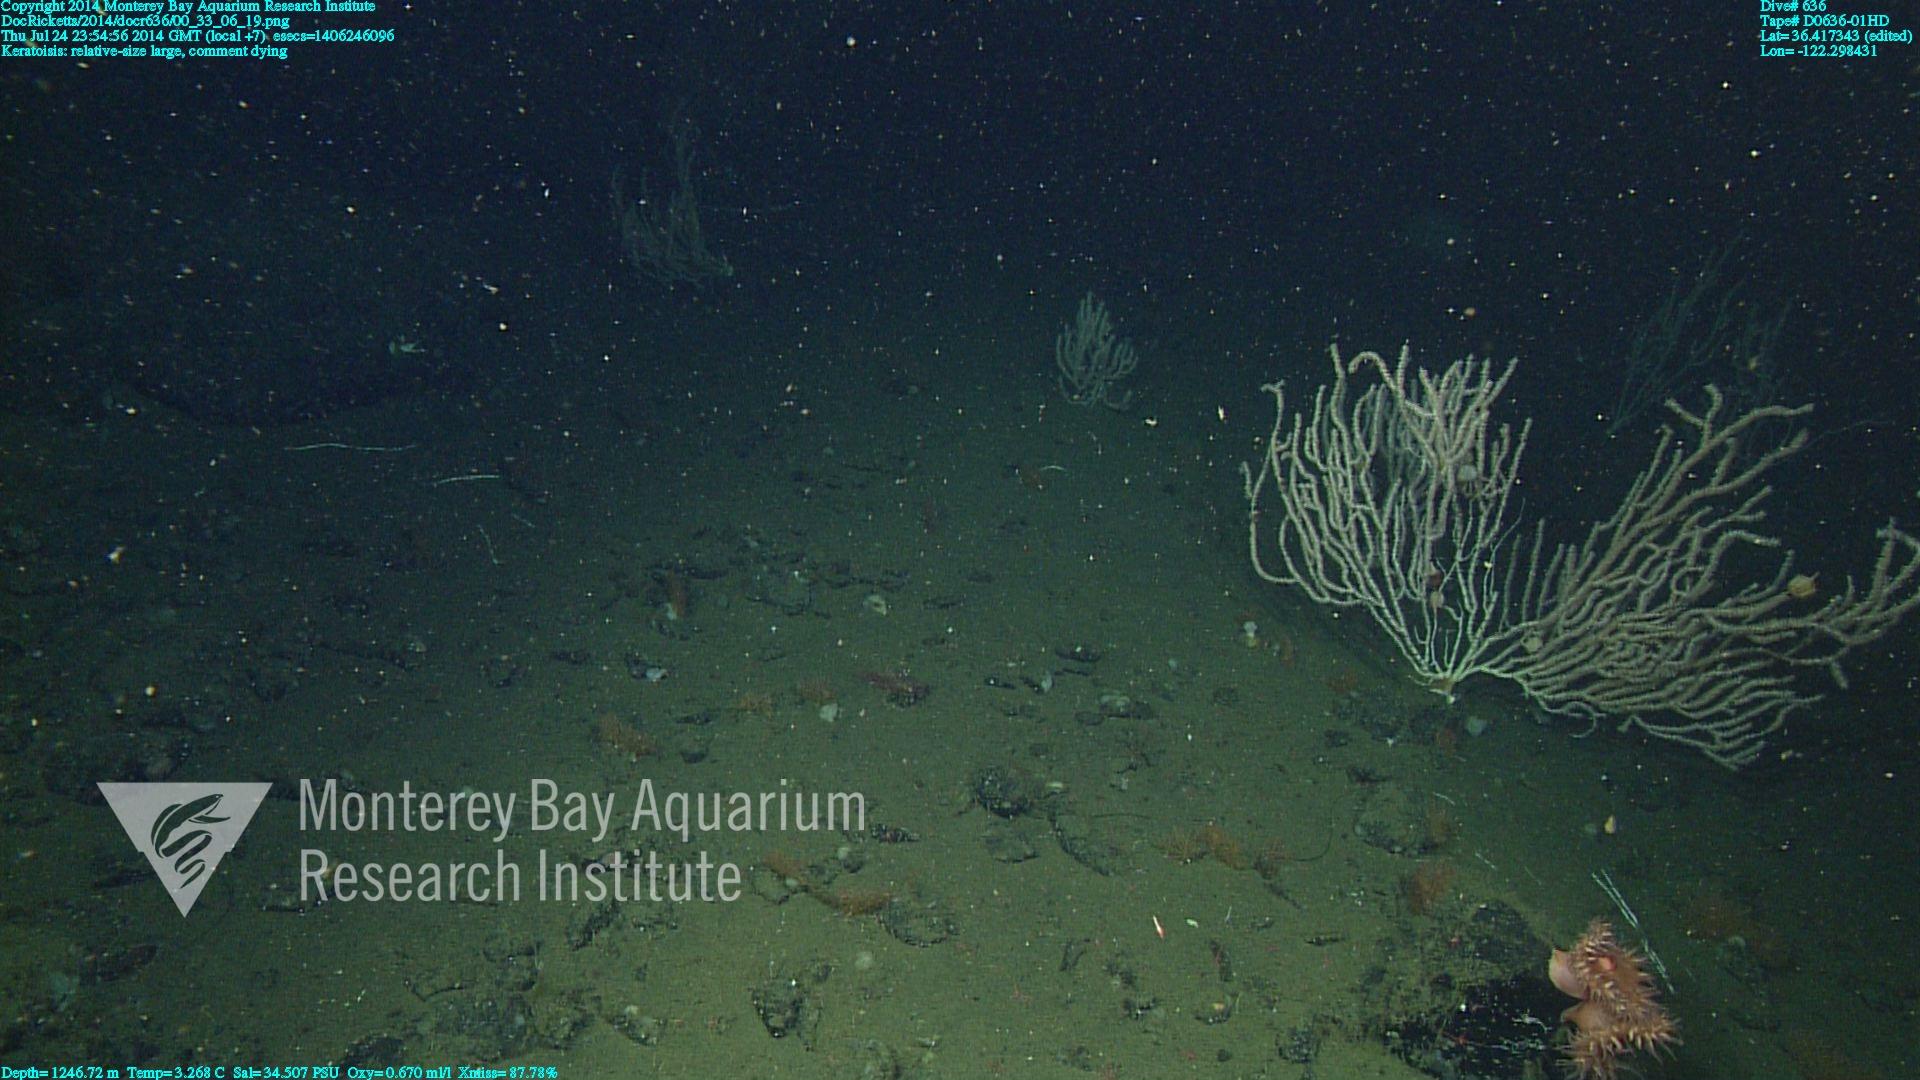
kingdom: Animalia
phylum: Cnidaria
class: Anthozoa
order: Scleralcyonacea
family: Keratoisididae
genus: Keratoisis
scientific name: Keratoisis
